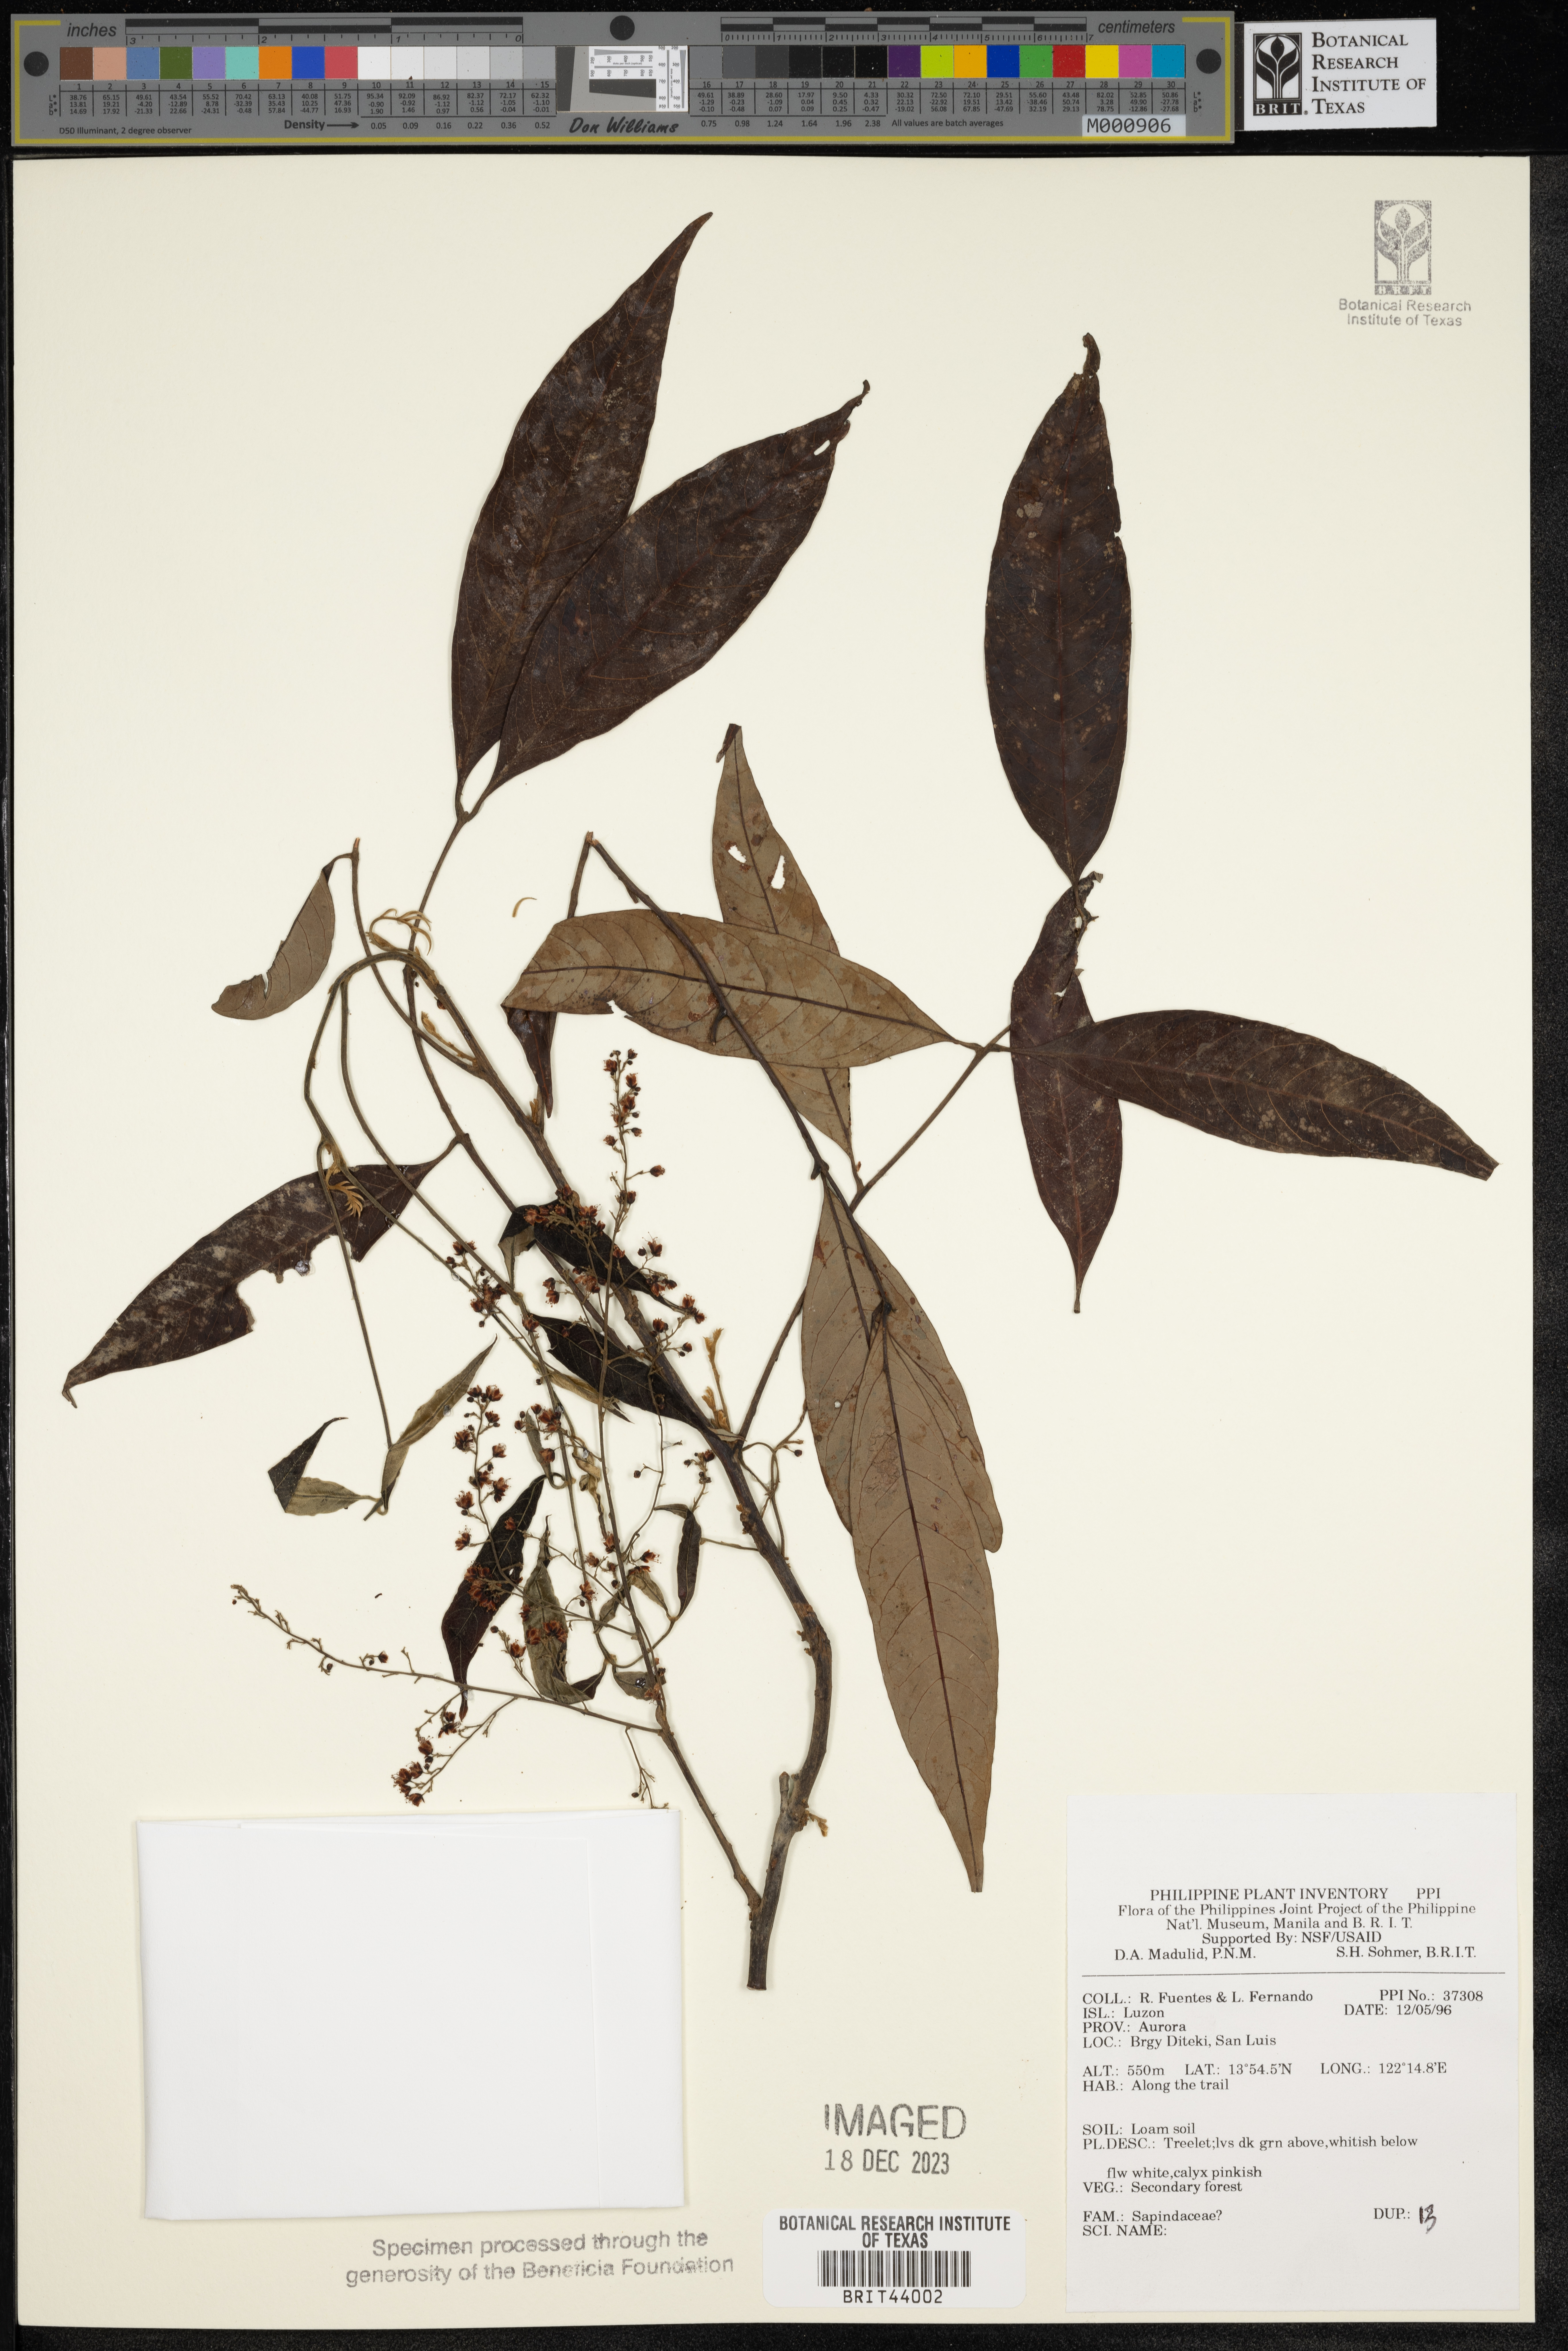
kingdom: Plantae
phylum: Tracheophyta
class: Magnoliopsida
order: Sapindales
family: Sapindaceae
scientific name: Sapindaceae
